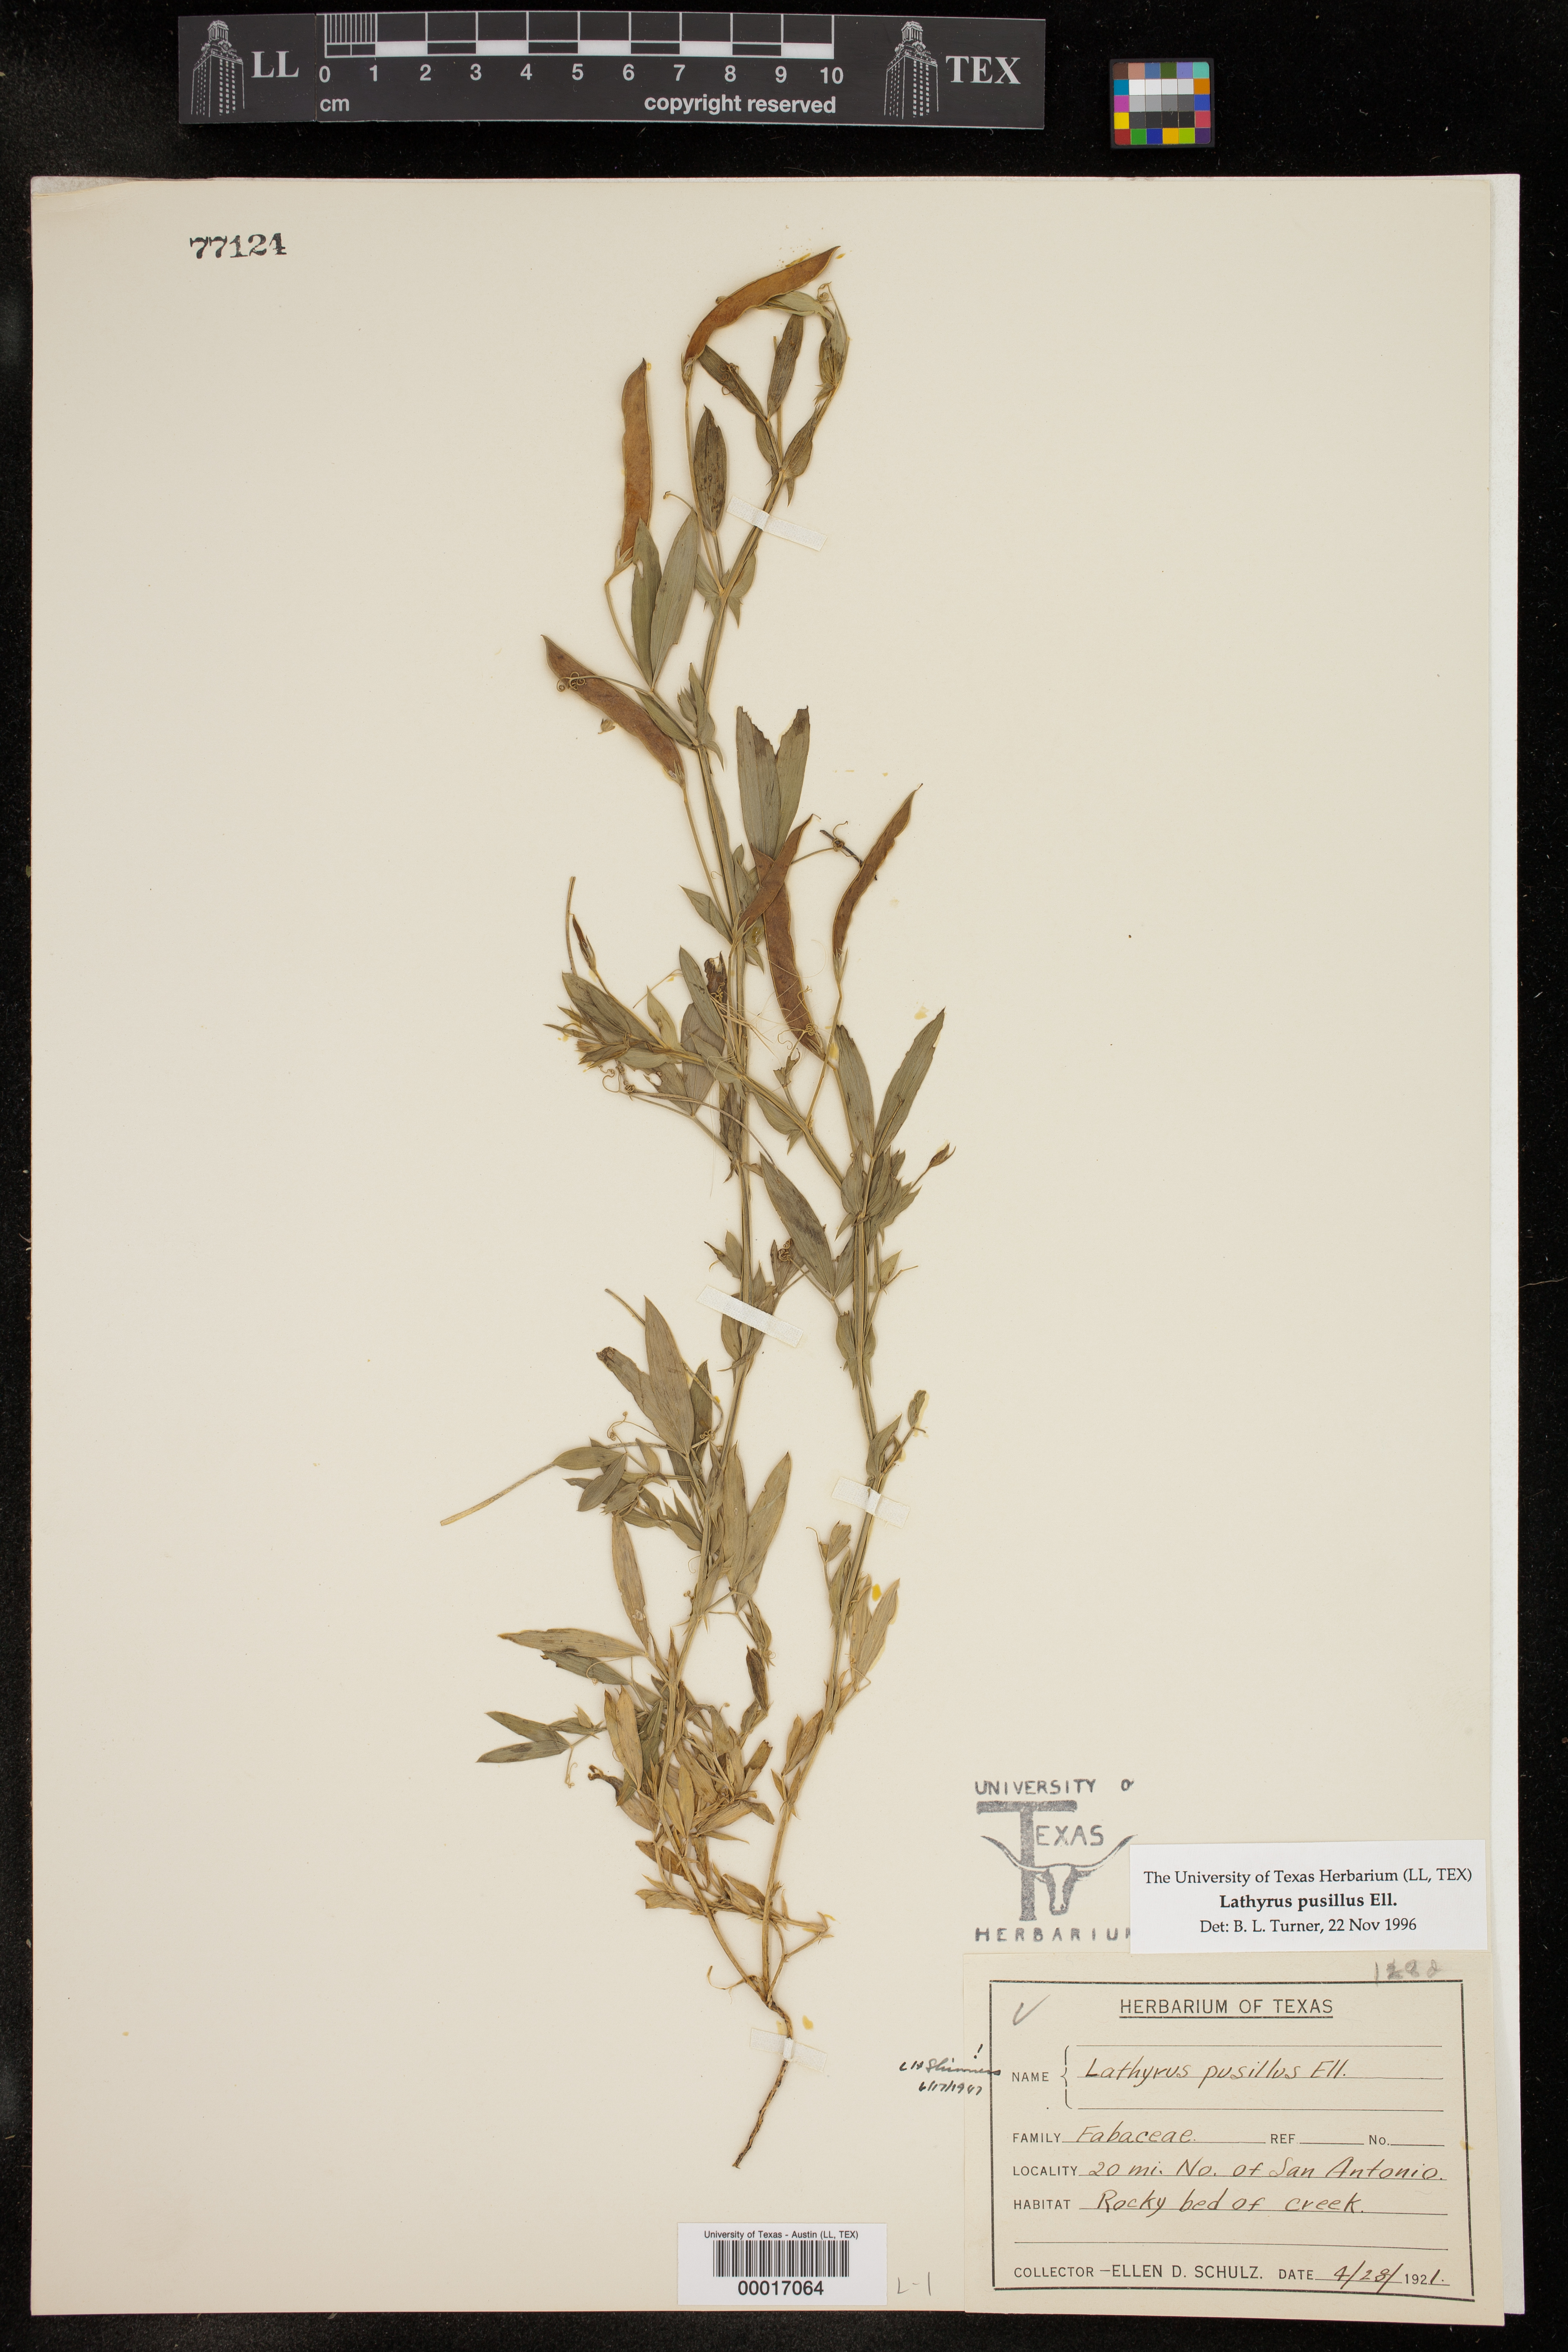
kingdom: Plantae
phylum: Tracheophyta
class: Magnoliopsida
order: Fabales
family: Fabaceae
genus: Lathyrus
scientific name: Lathyrus pusillus
